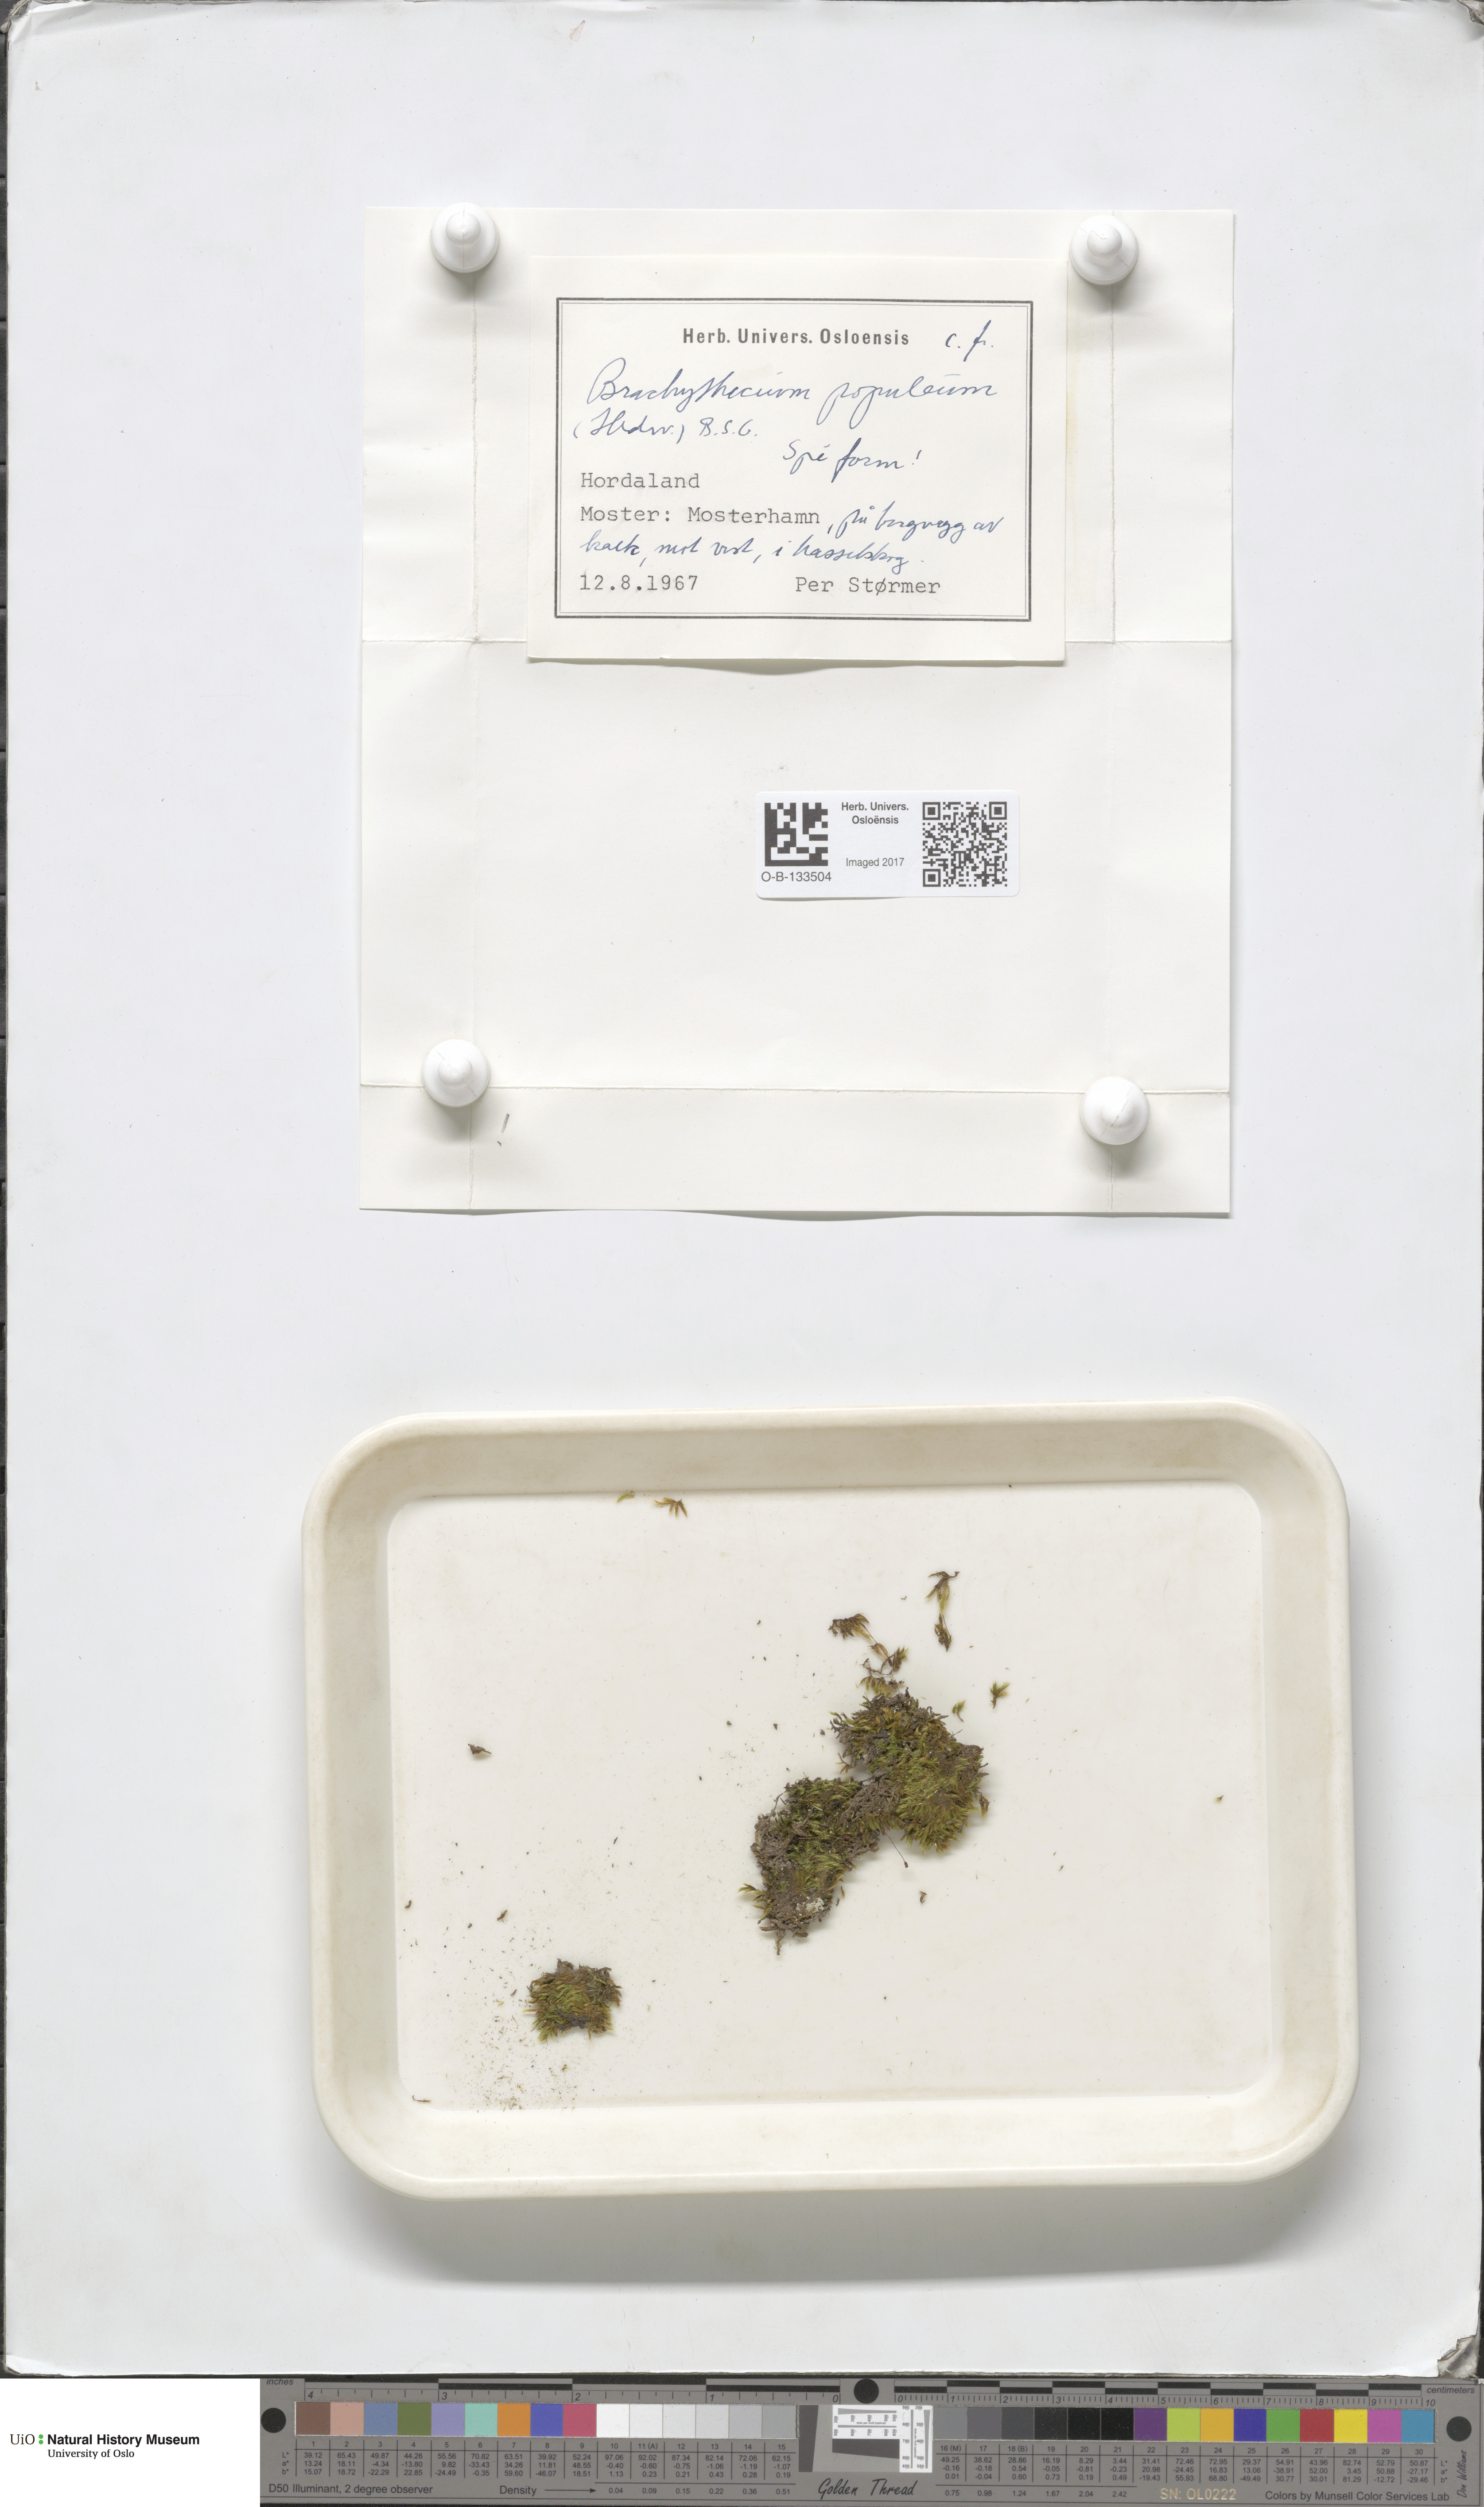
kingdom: Plantae
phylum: Bryophyta
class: Bryopsida
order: Hypnales
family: Brachytheciaceae
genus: Sciuro-hypnum
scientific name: Sciuro-hypnum plumosum
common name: Rusty feather-moss
